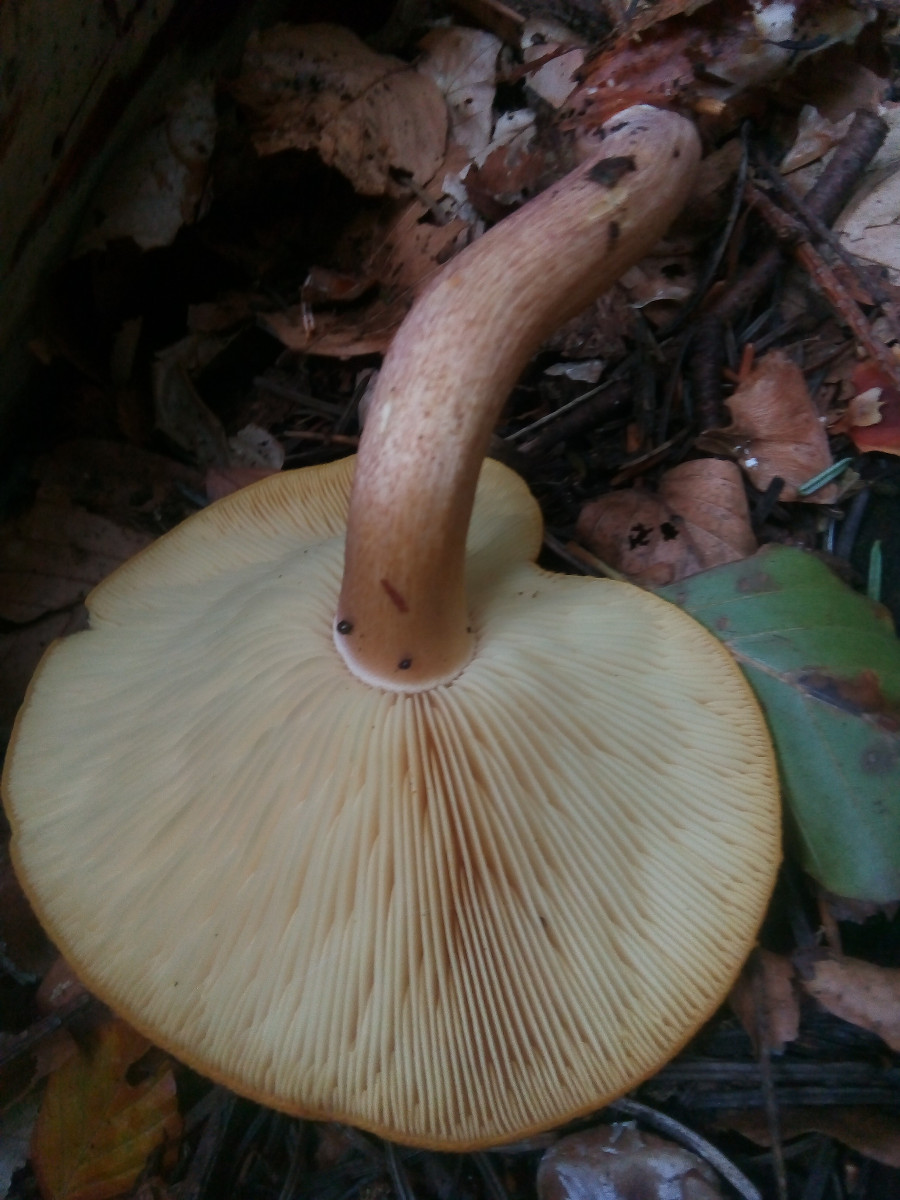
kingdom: Fungi
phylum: Basidiomycota
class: Agaricomycetes
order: Agaricales
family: Tricholomataceae
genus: Tricholomopsis
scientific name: Tricholomopsis rutilans
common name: purpur-væbnerhat
